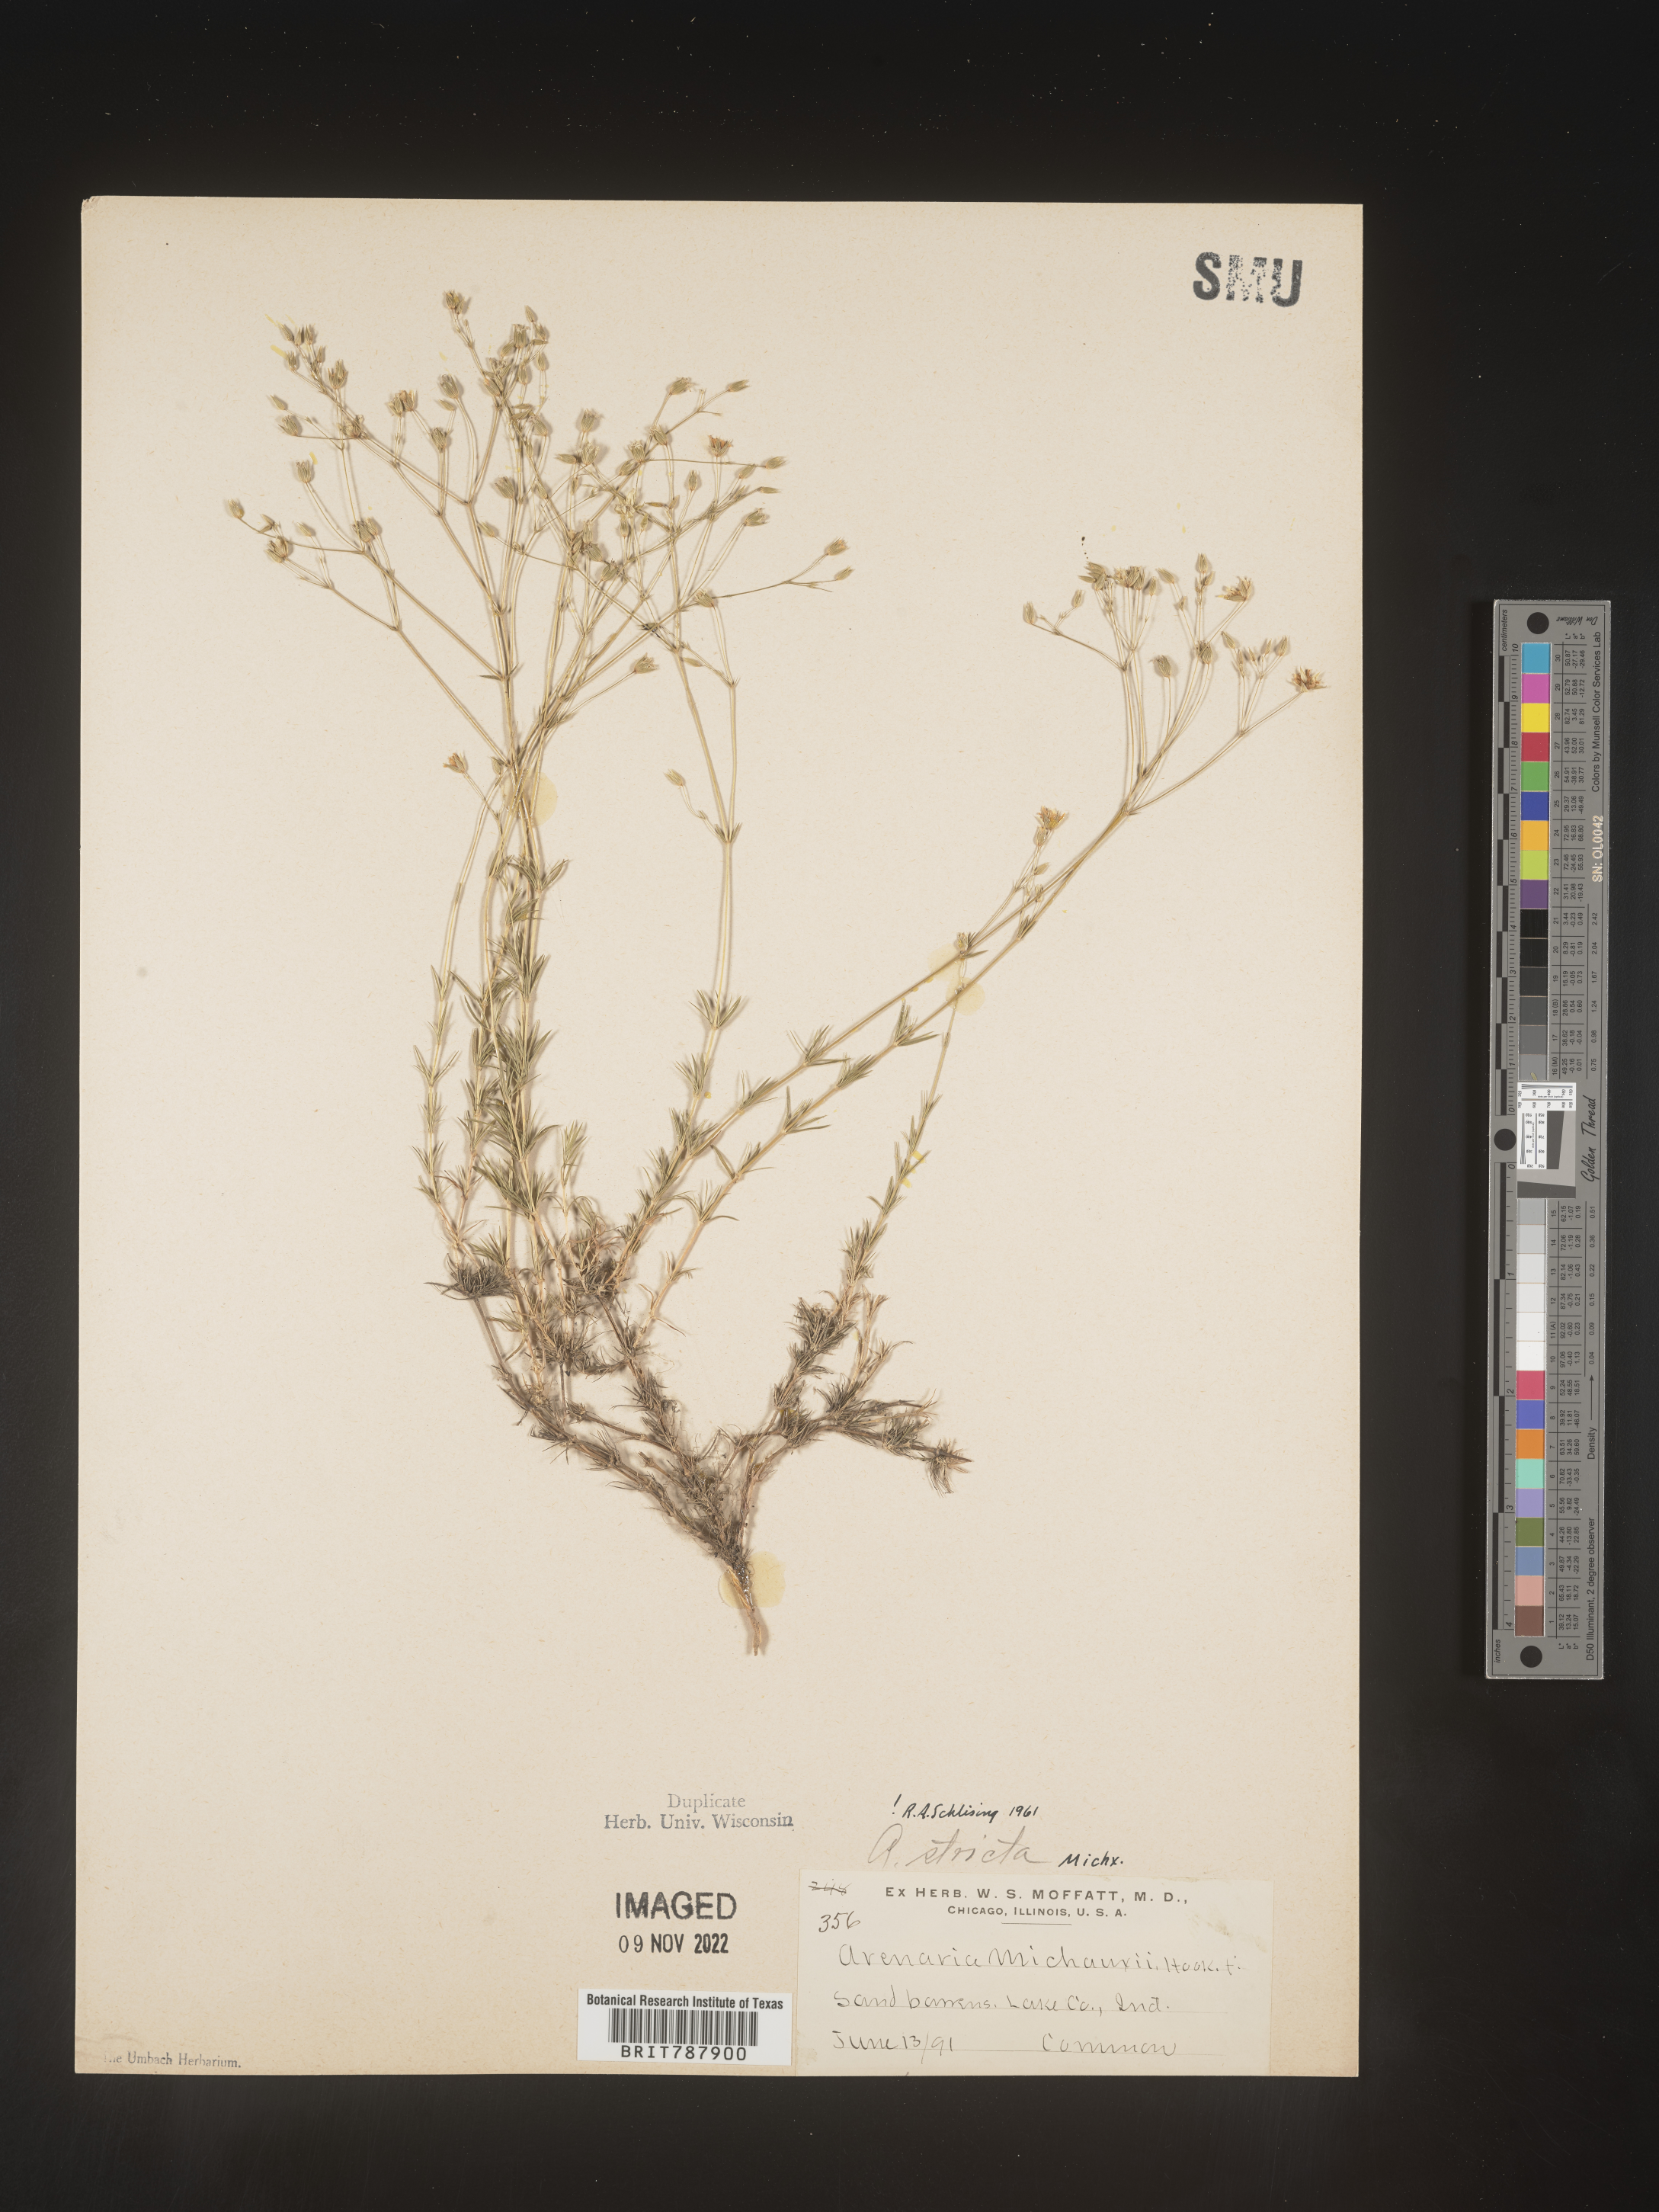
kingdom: Plantae
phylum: Tracheophyta
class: Magnoliopsida
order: Caryophyllales
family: Caryophyllaceae
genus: Sabulina
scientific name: Sabulina michauxii
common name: Michaux's stitchwort
